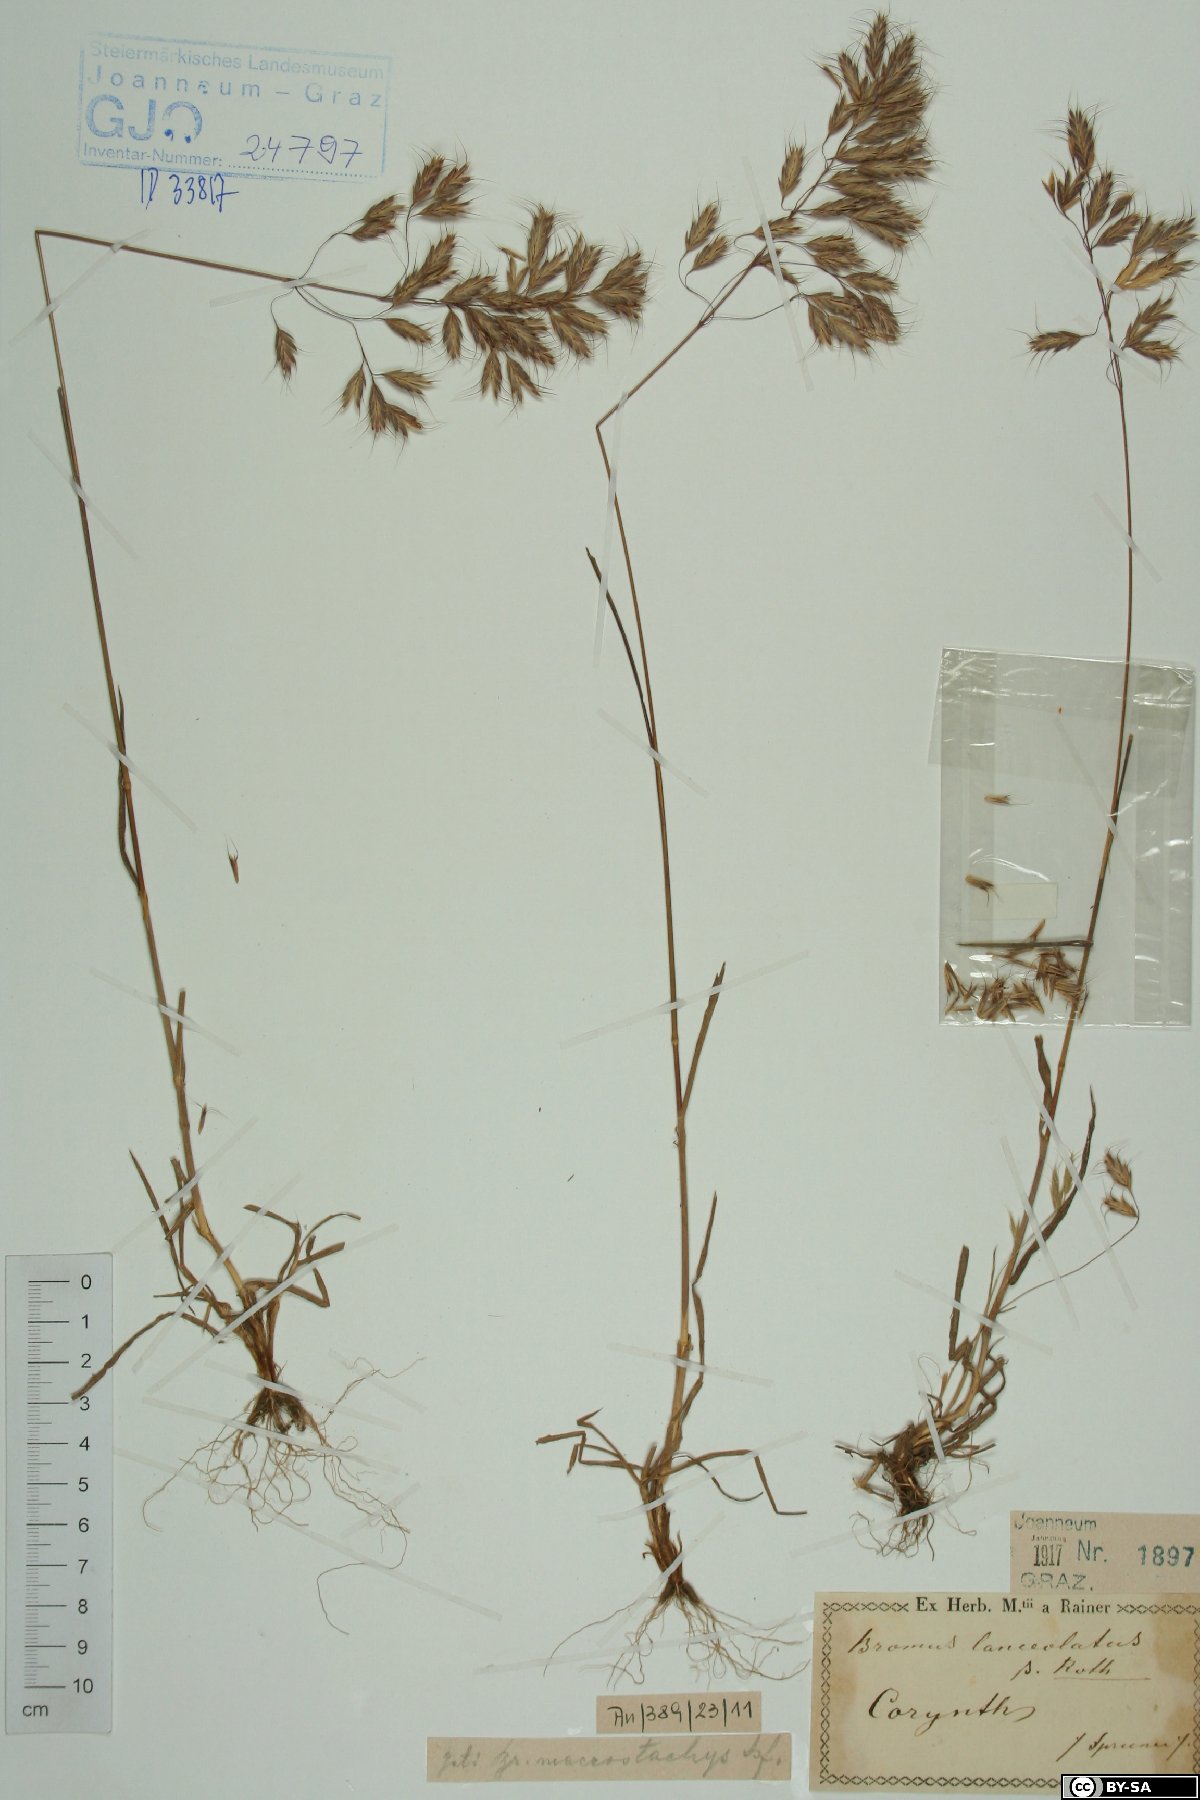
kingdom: Plantae
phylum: Tracheophyta
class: Liliopsida
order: Poales
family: Poaceae
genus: Bromus
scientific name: Bromus lanceolatus
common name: Mediterranean brome
